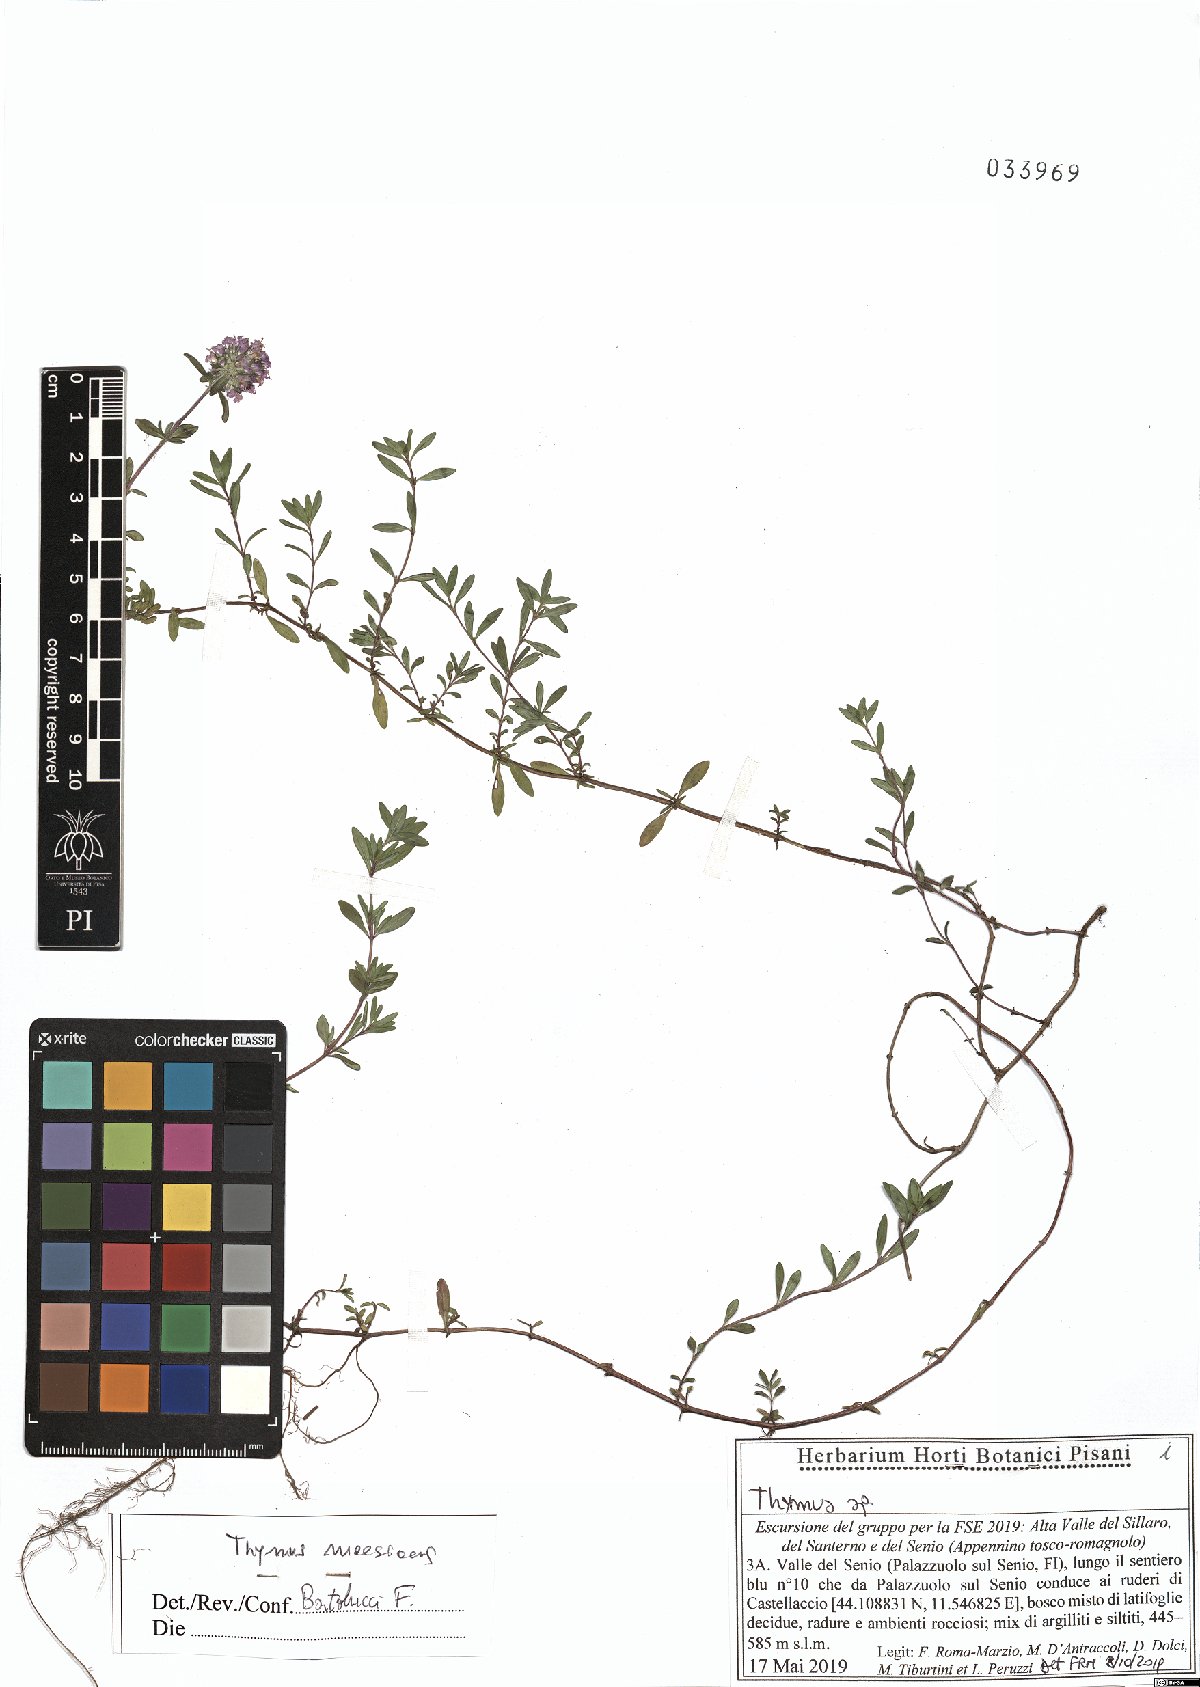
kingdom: Plantae
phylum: Tracheophyta
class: Magnoliopsida
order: Lamiales
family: Lamiaceae
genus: Thymus
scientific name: Thymus longicaulis
